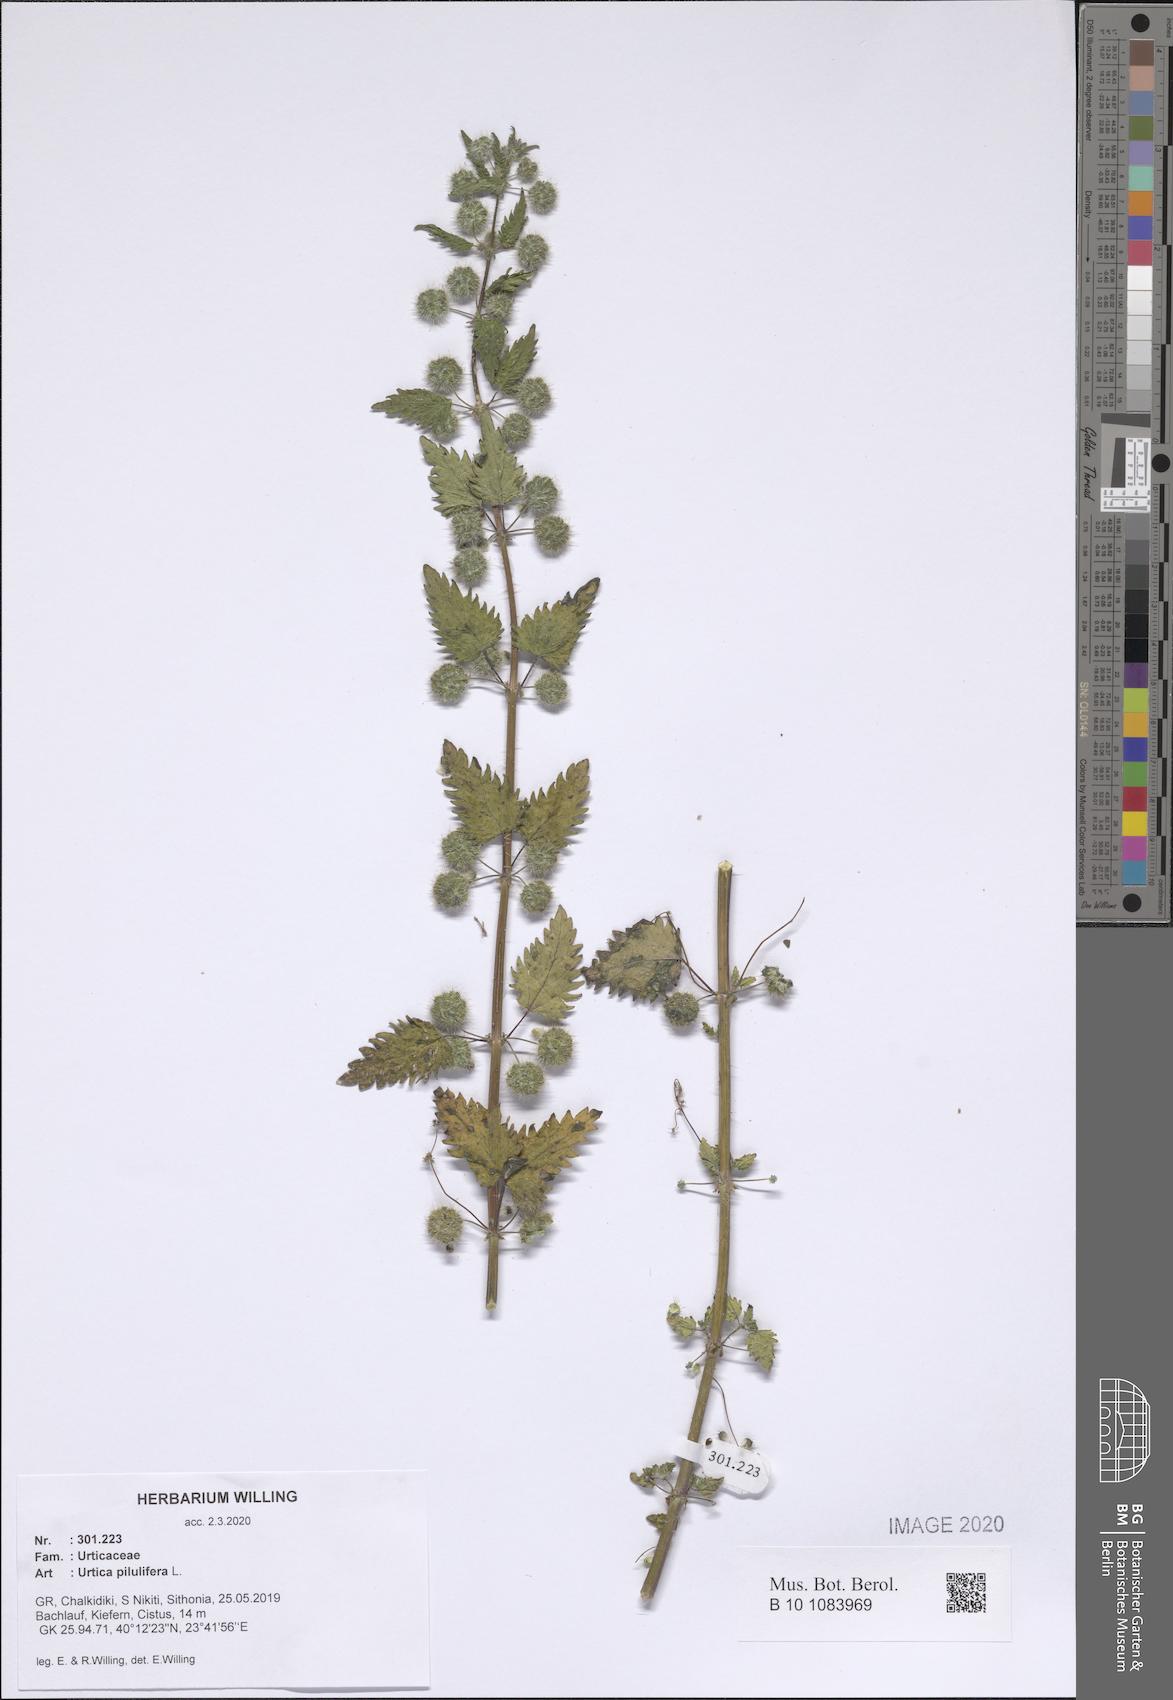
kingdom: Plantae
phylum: Tracheophyta
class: Magnoliopsida
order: Rosales
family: Urticaceae
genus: Urtica
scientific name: Urtica pilulifera
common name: Roman nettle
